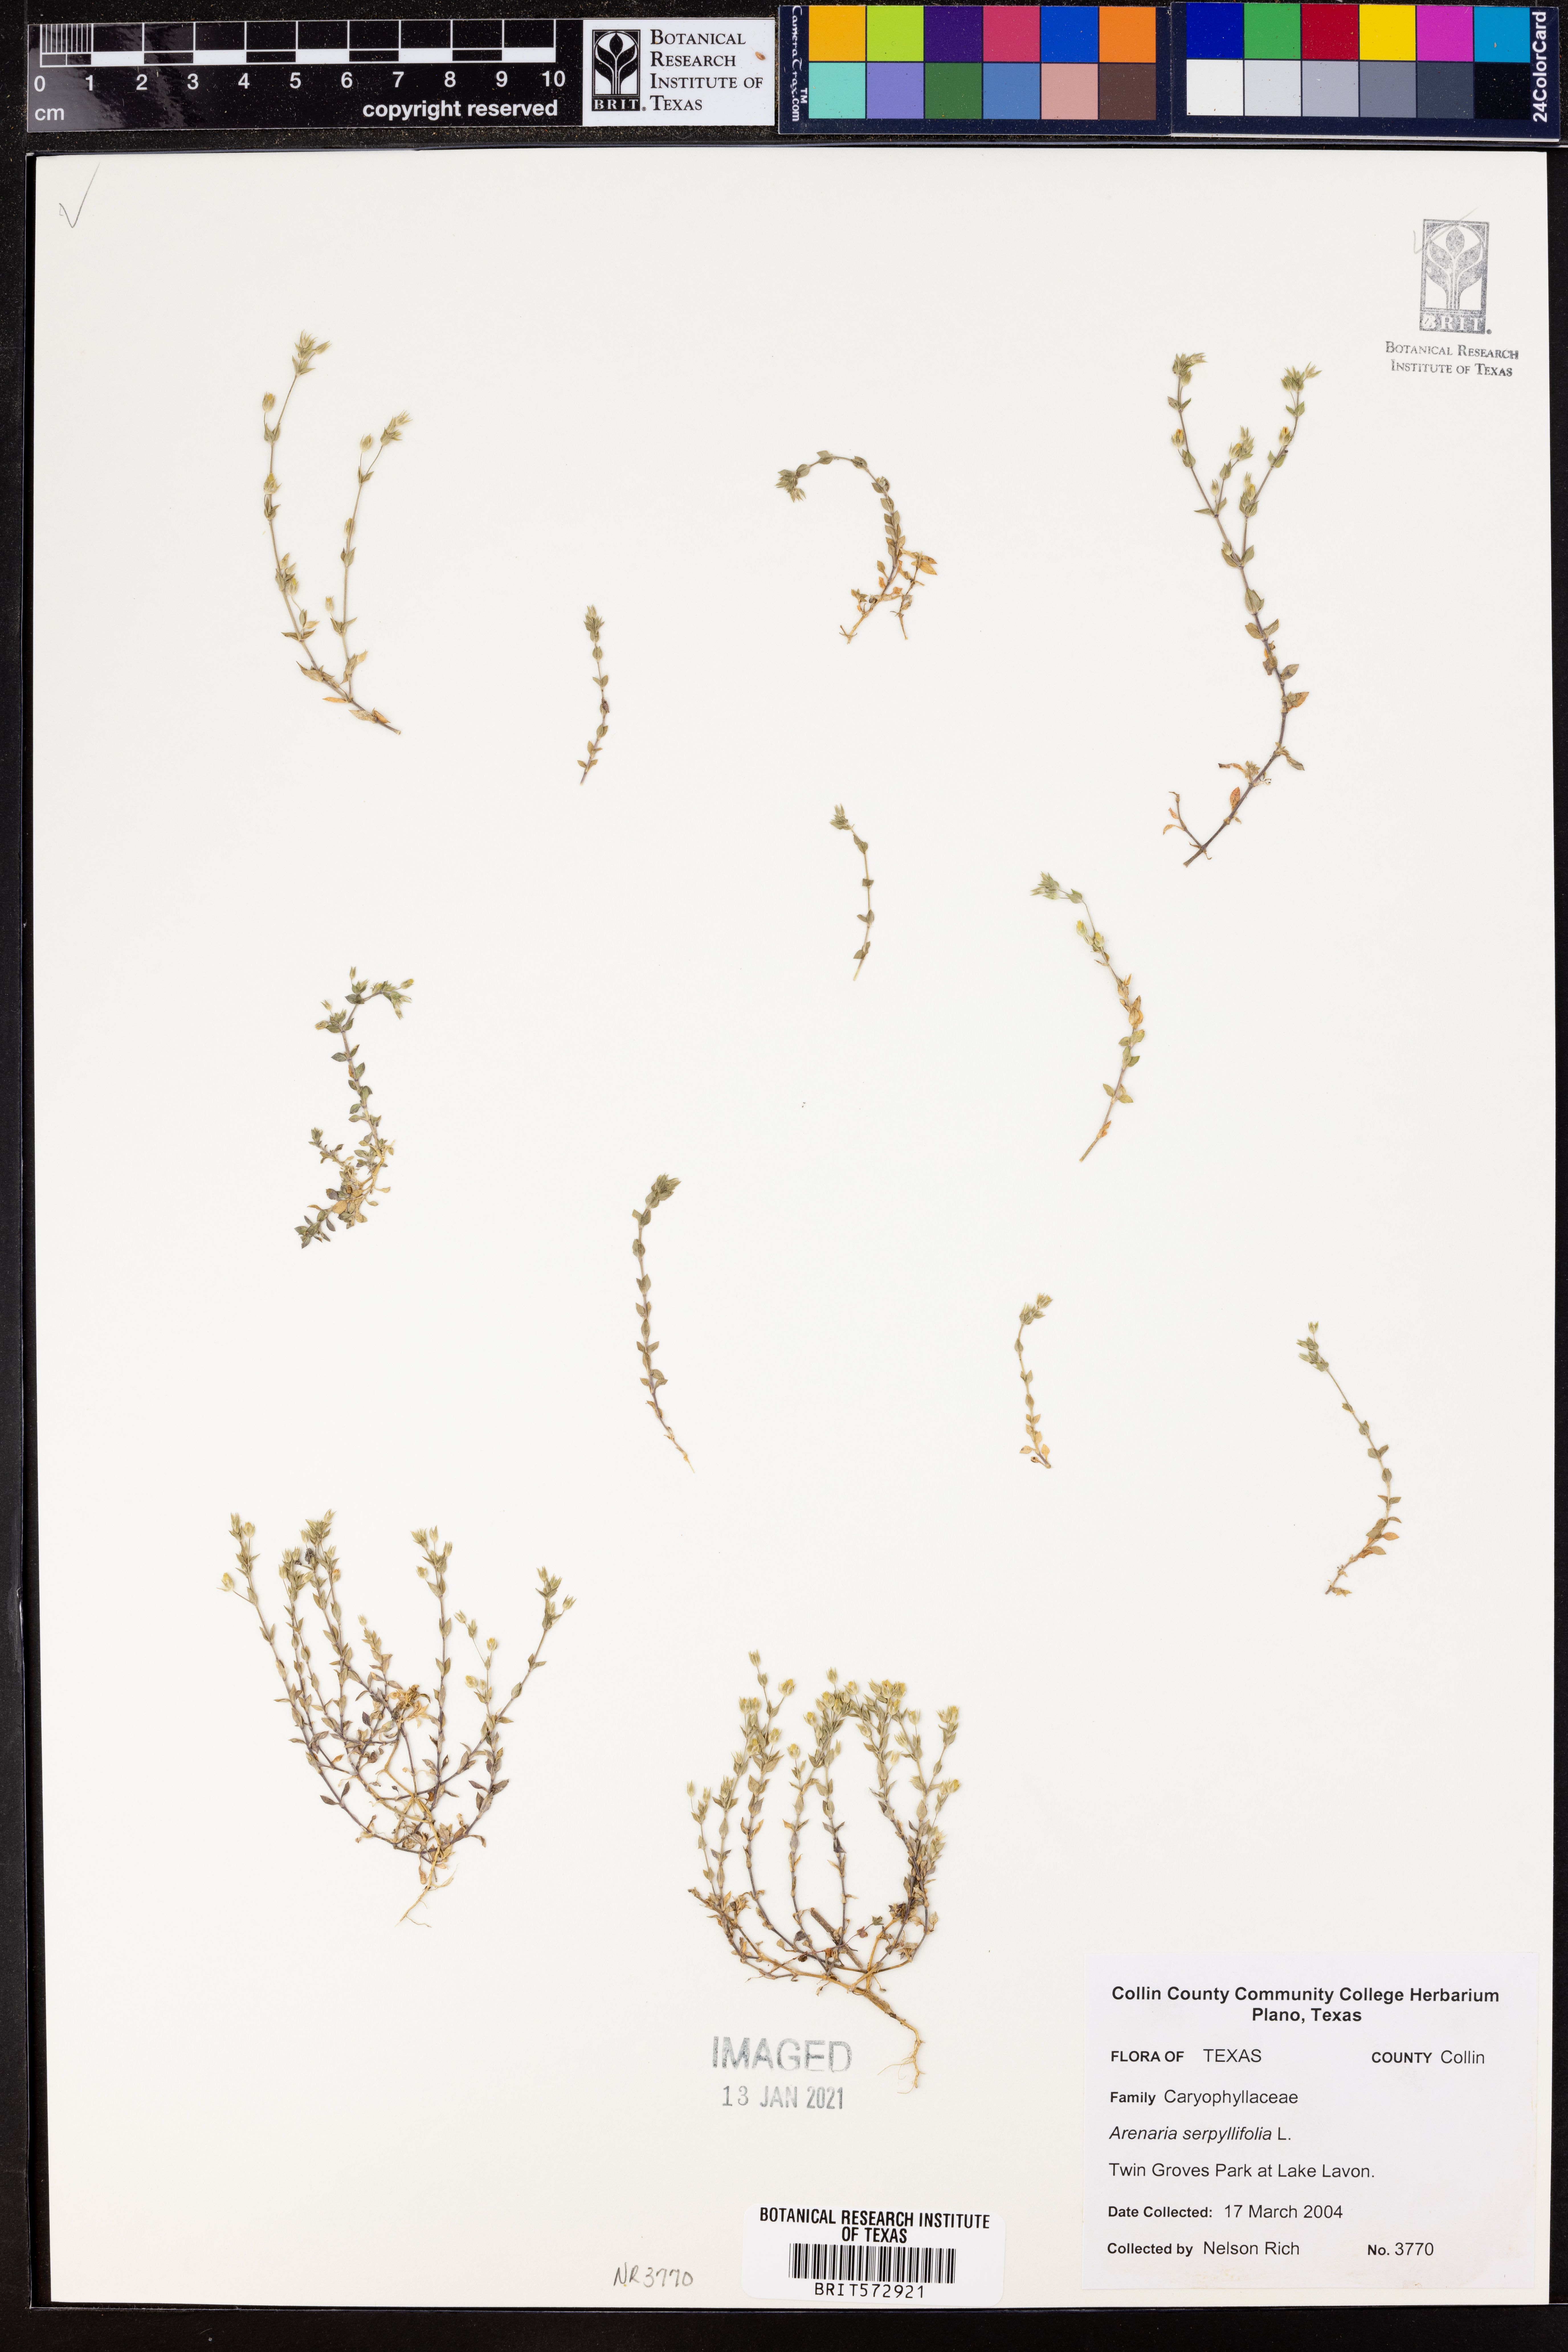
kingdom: Plantae
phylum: Tracheophyta
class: Magnoliopsida
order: Caryophyllales
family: Caryophyllaceae
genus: Arenaria
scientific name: Arenaria serpyllifolia
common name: Thyme-leaved sandwort
